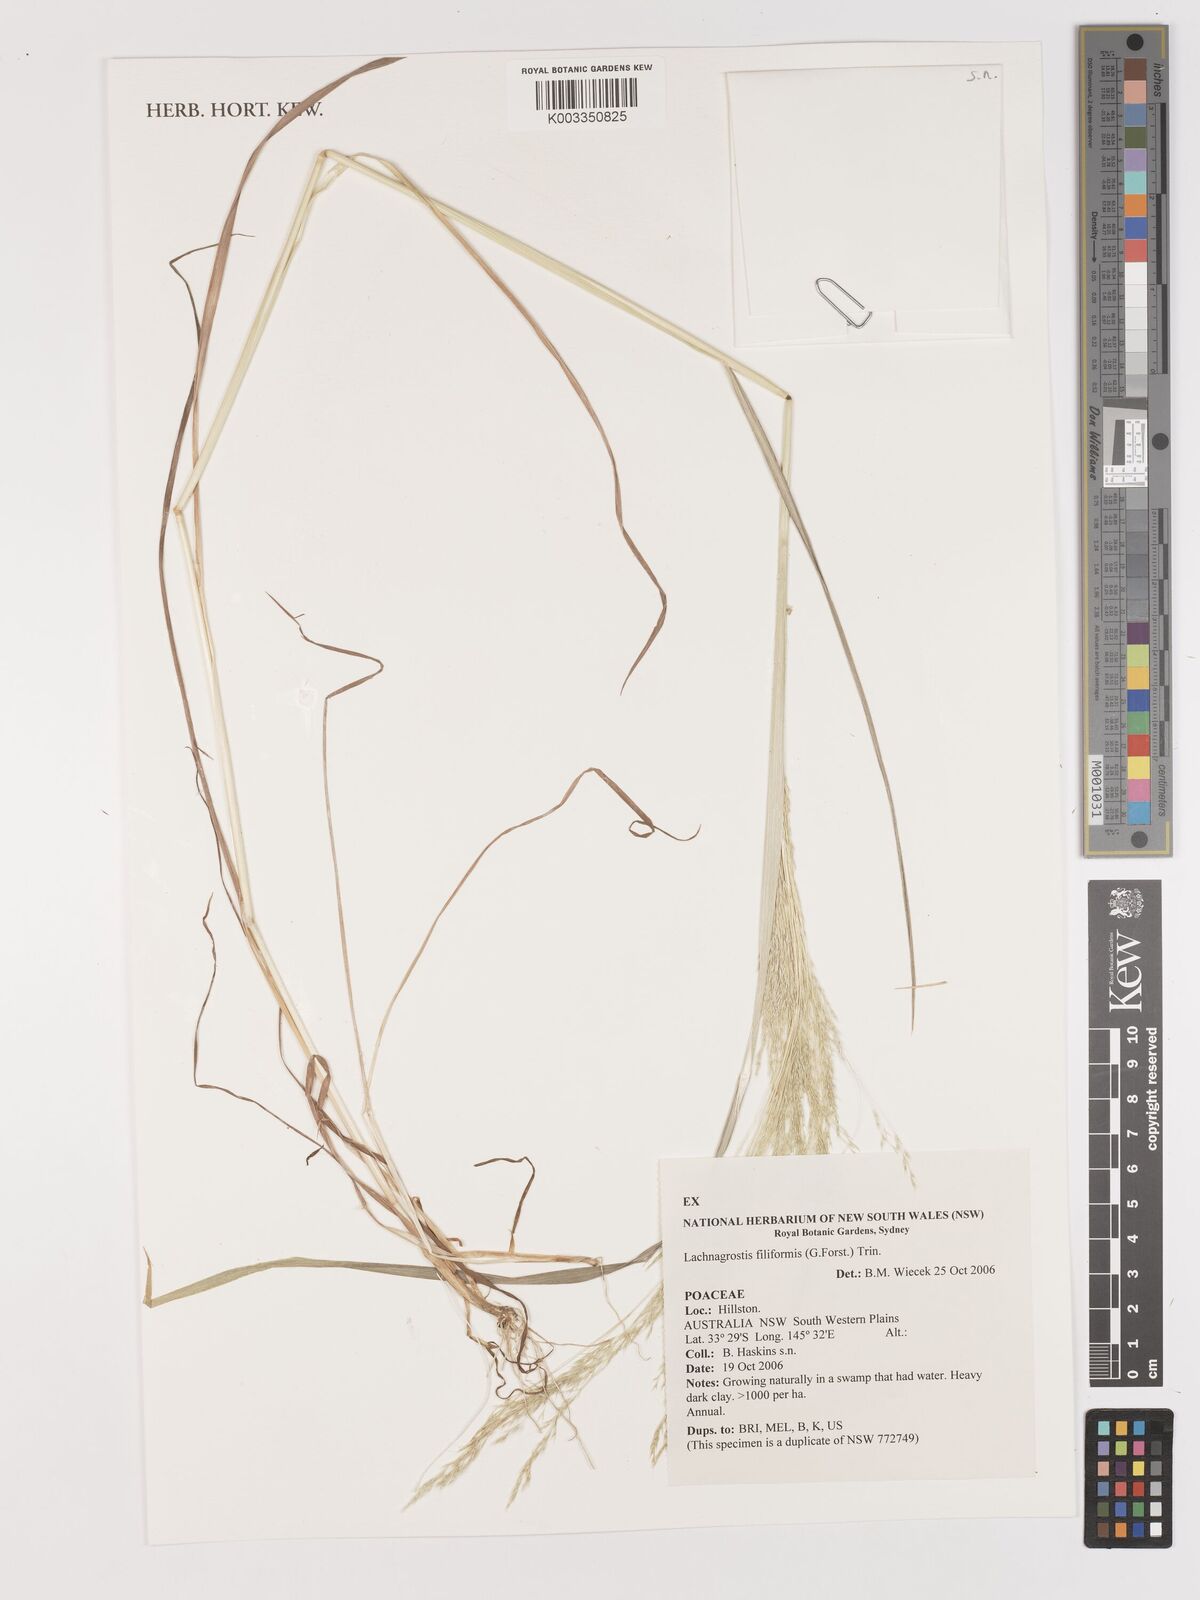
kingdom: Plantae
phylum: Tracheophyta
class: Liliopsida
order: Poales
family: Poaceae
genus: Lachnagrostis
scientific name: Lachnagrostis filiformis
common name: Bentgrass
